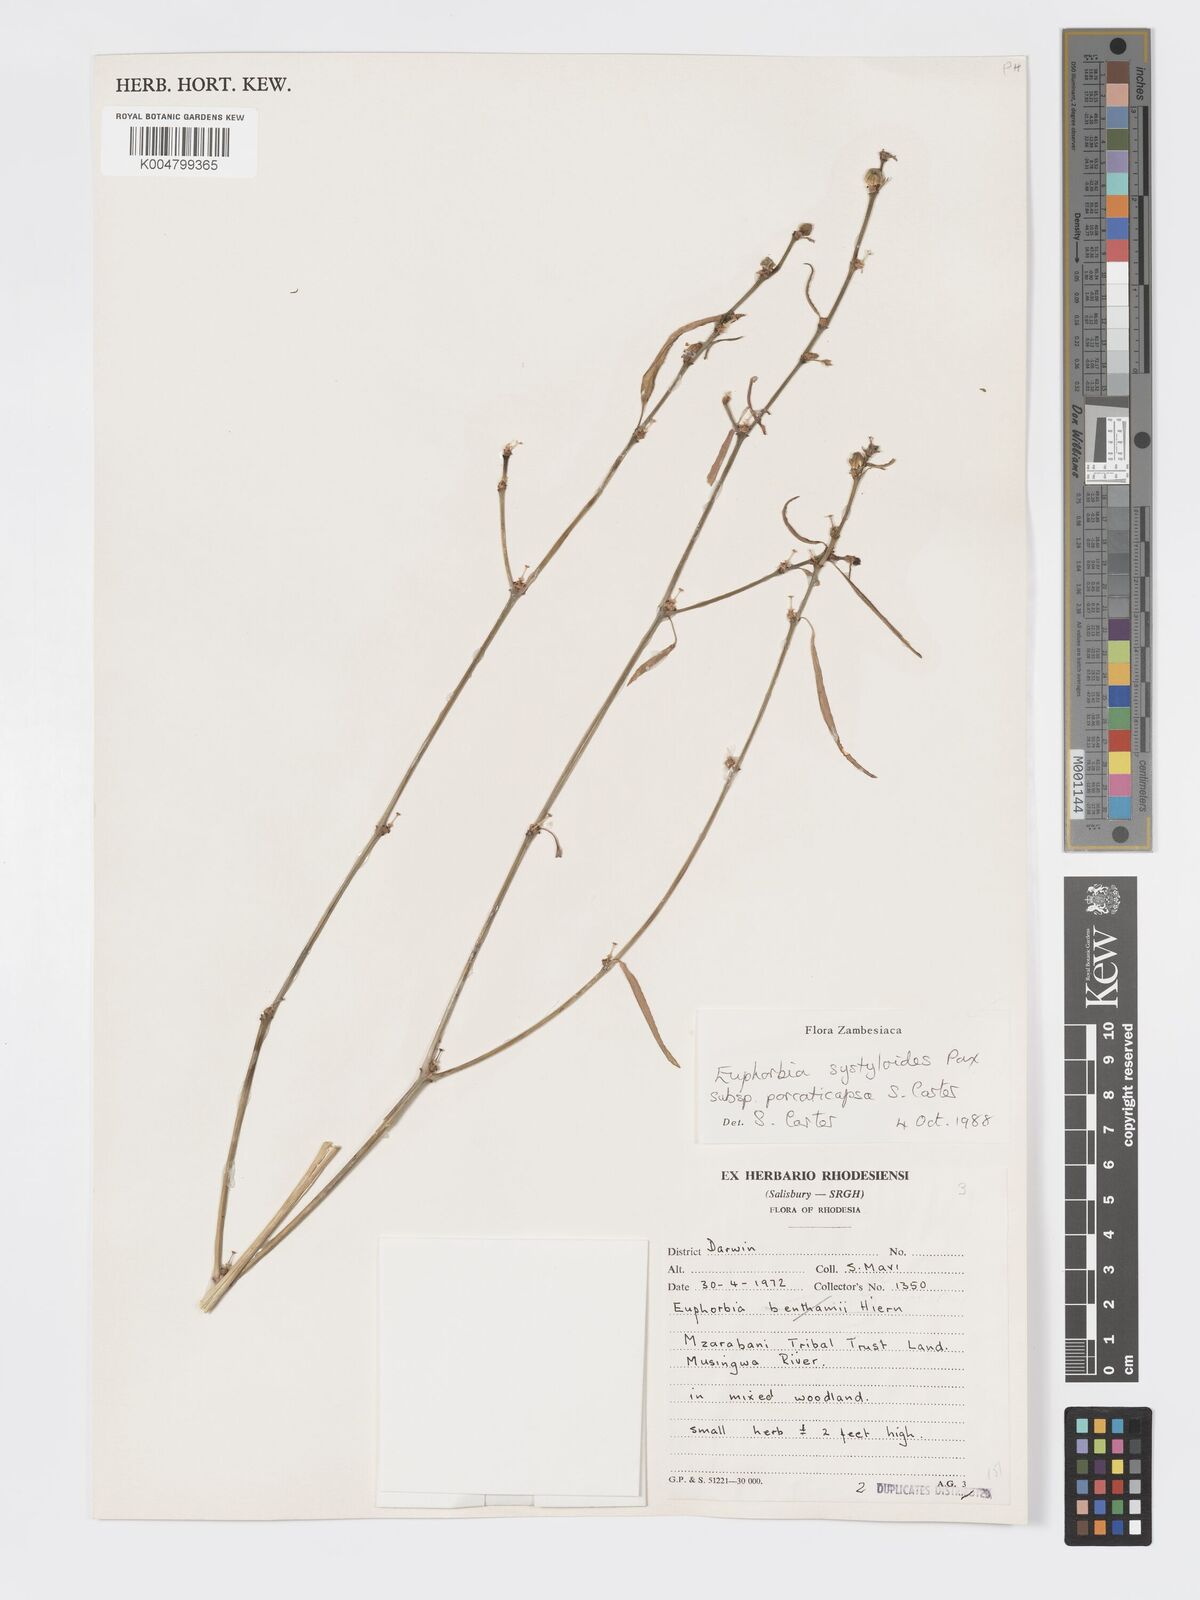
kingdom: Plantae
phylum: Tracheophyta
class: Magnoliopsida
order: Malpighiales
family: Euphorbiaceae
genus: Euphorbia
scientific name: Euphorbia systyloides
